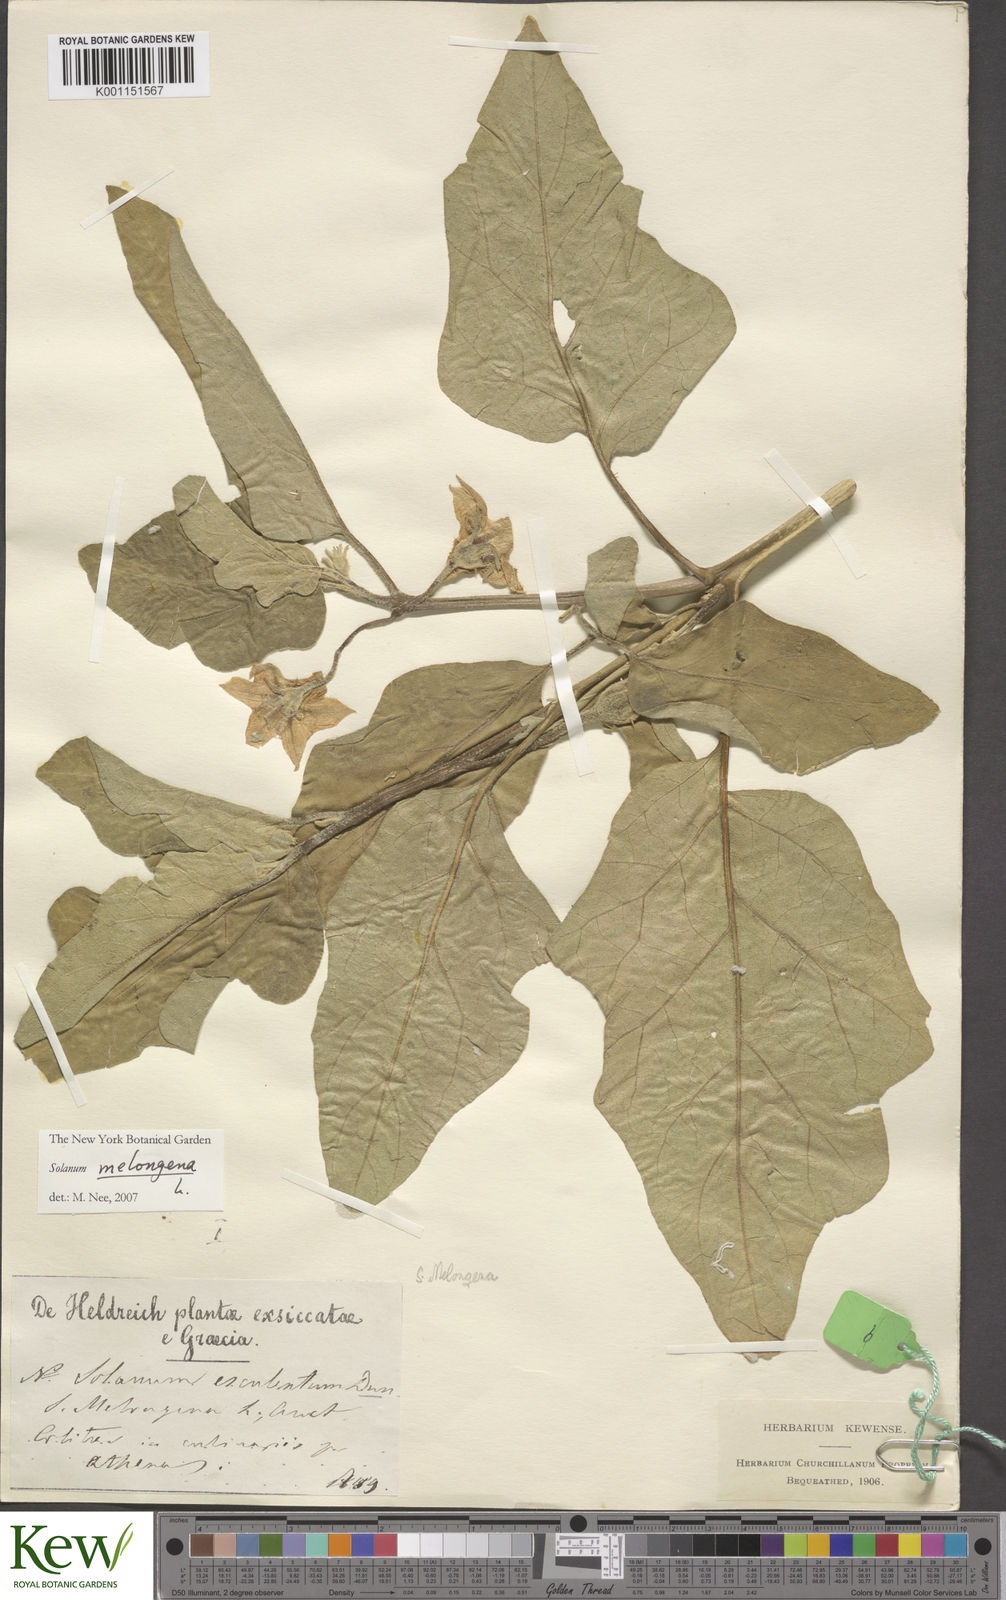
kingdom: Plantae
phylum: Tracheophyta
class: Magnoliopsida
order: Solanales
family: Solanaceae
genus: Solanum
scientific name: Solanum melongena
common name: Eggplant
